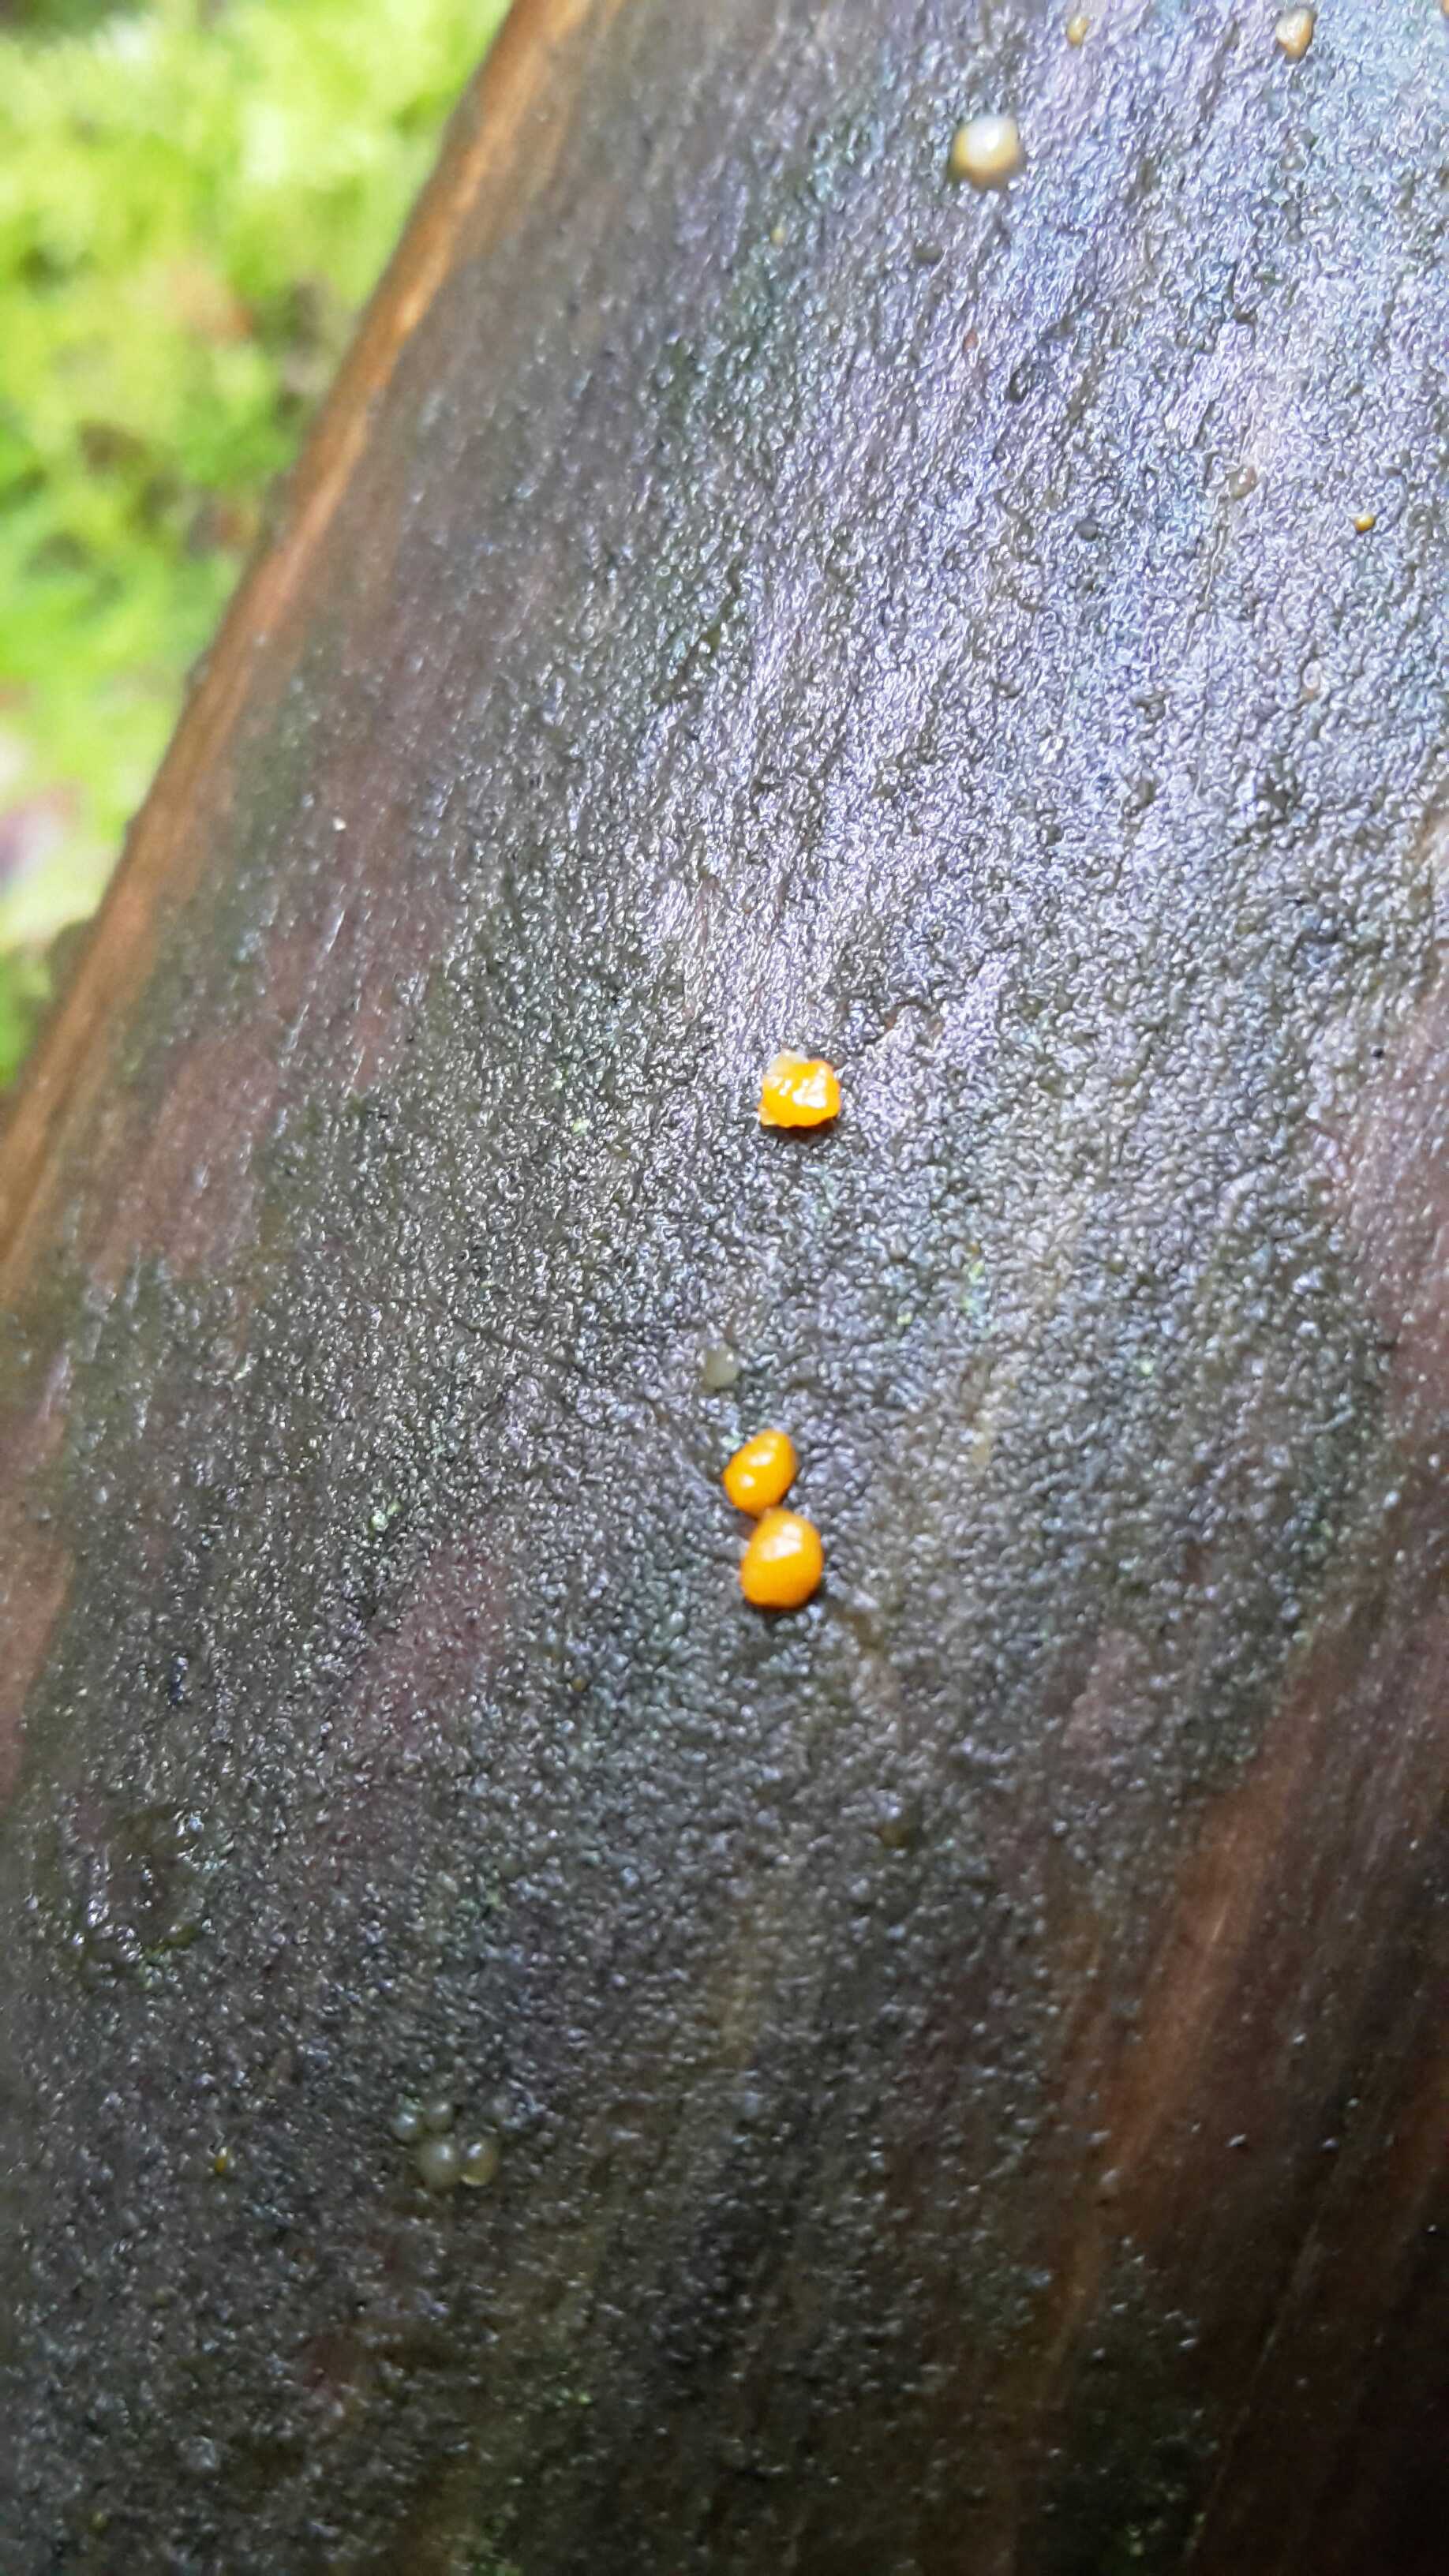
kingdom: Fungi
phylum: Basidiomycota
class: Dacrymycetes
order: Dacrymycetales
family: Dacrymycetaceae
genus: Dacrymyces
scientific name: Dacrymyces stillatus
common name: almindelig tåresvamp
